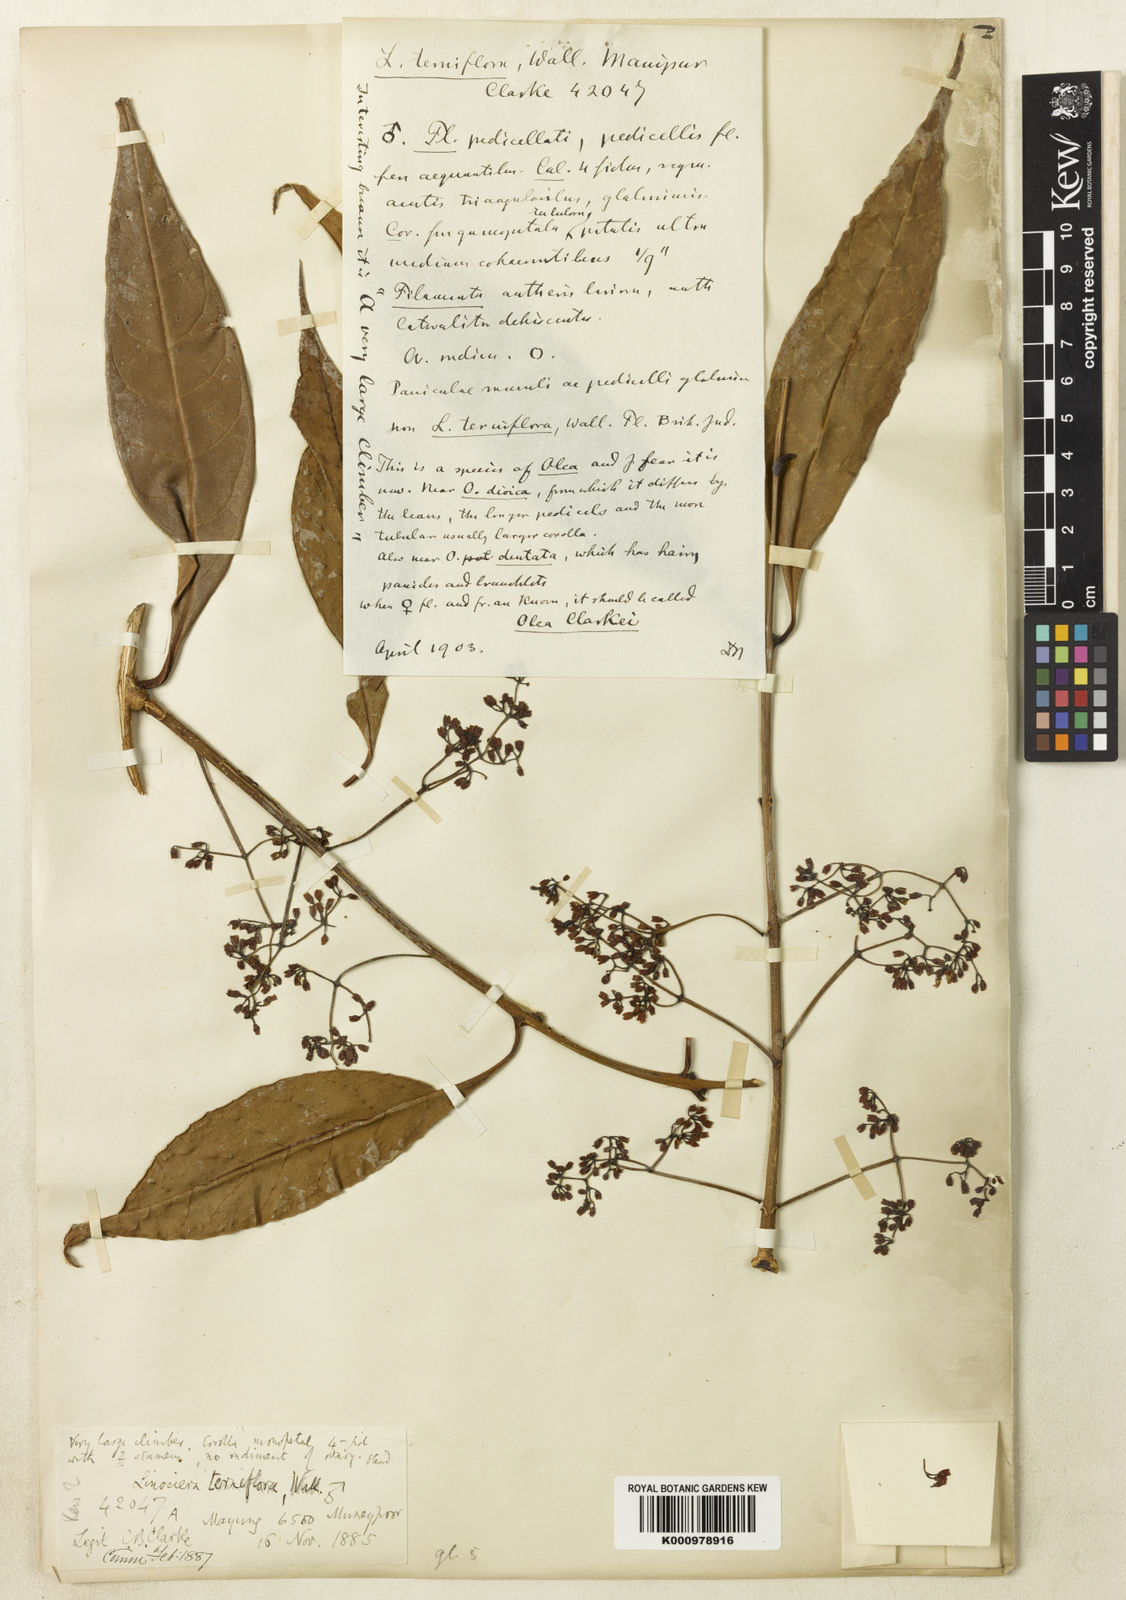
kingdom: Plantae
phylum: Tracheophyta
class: Magnoliopsida
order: Lamiales
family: Oleaceae
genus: Olea
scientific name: Olea
